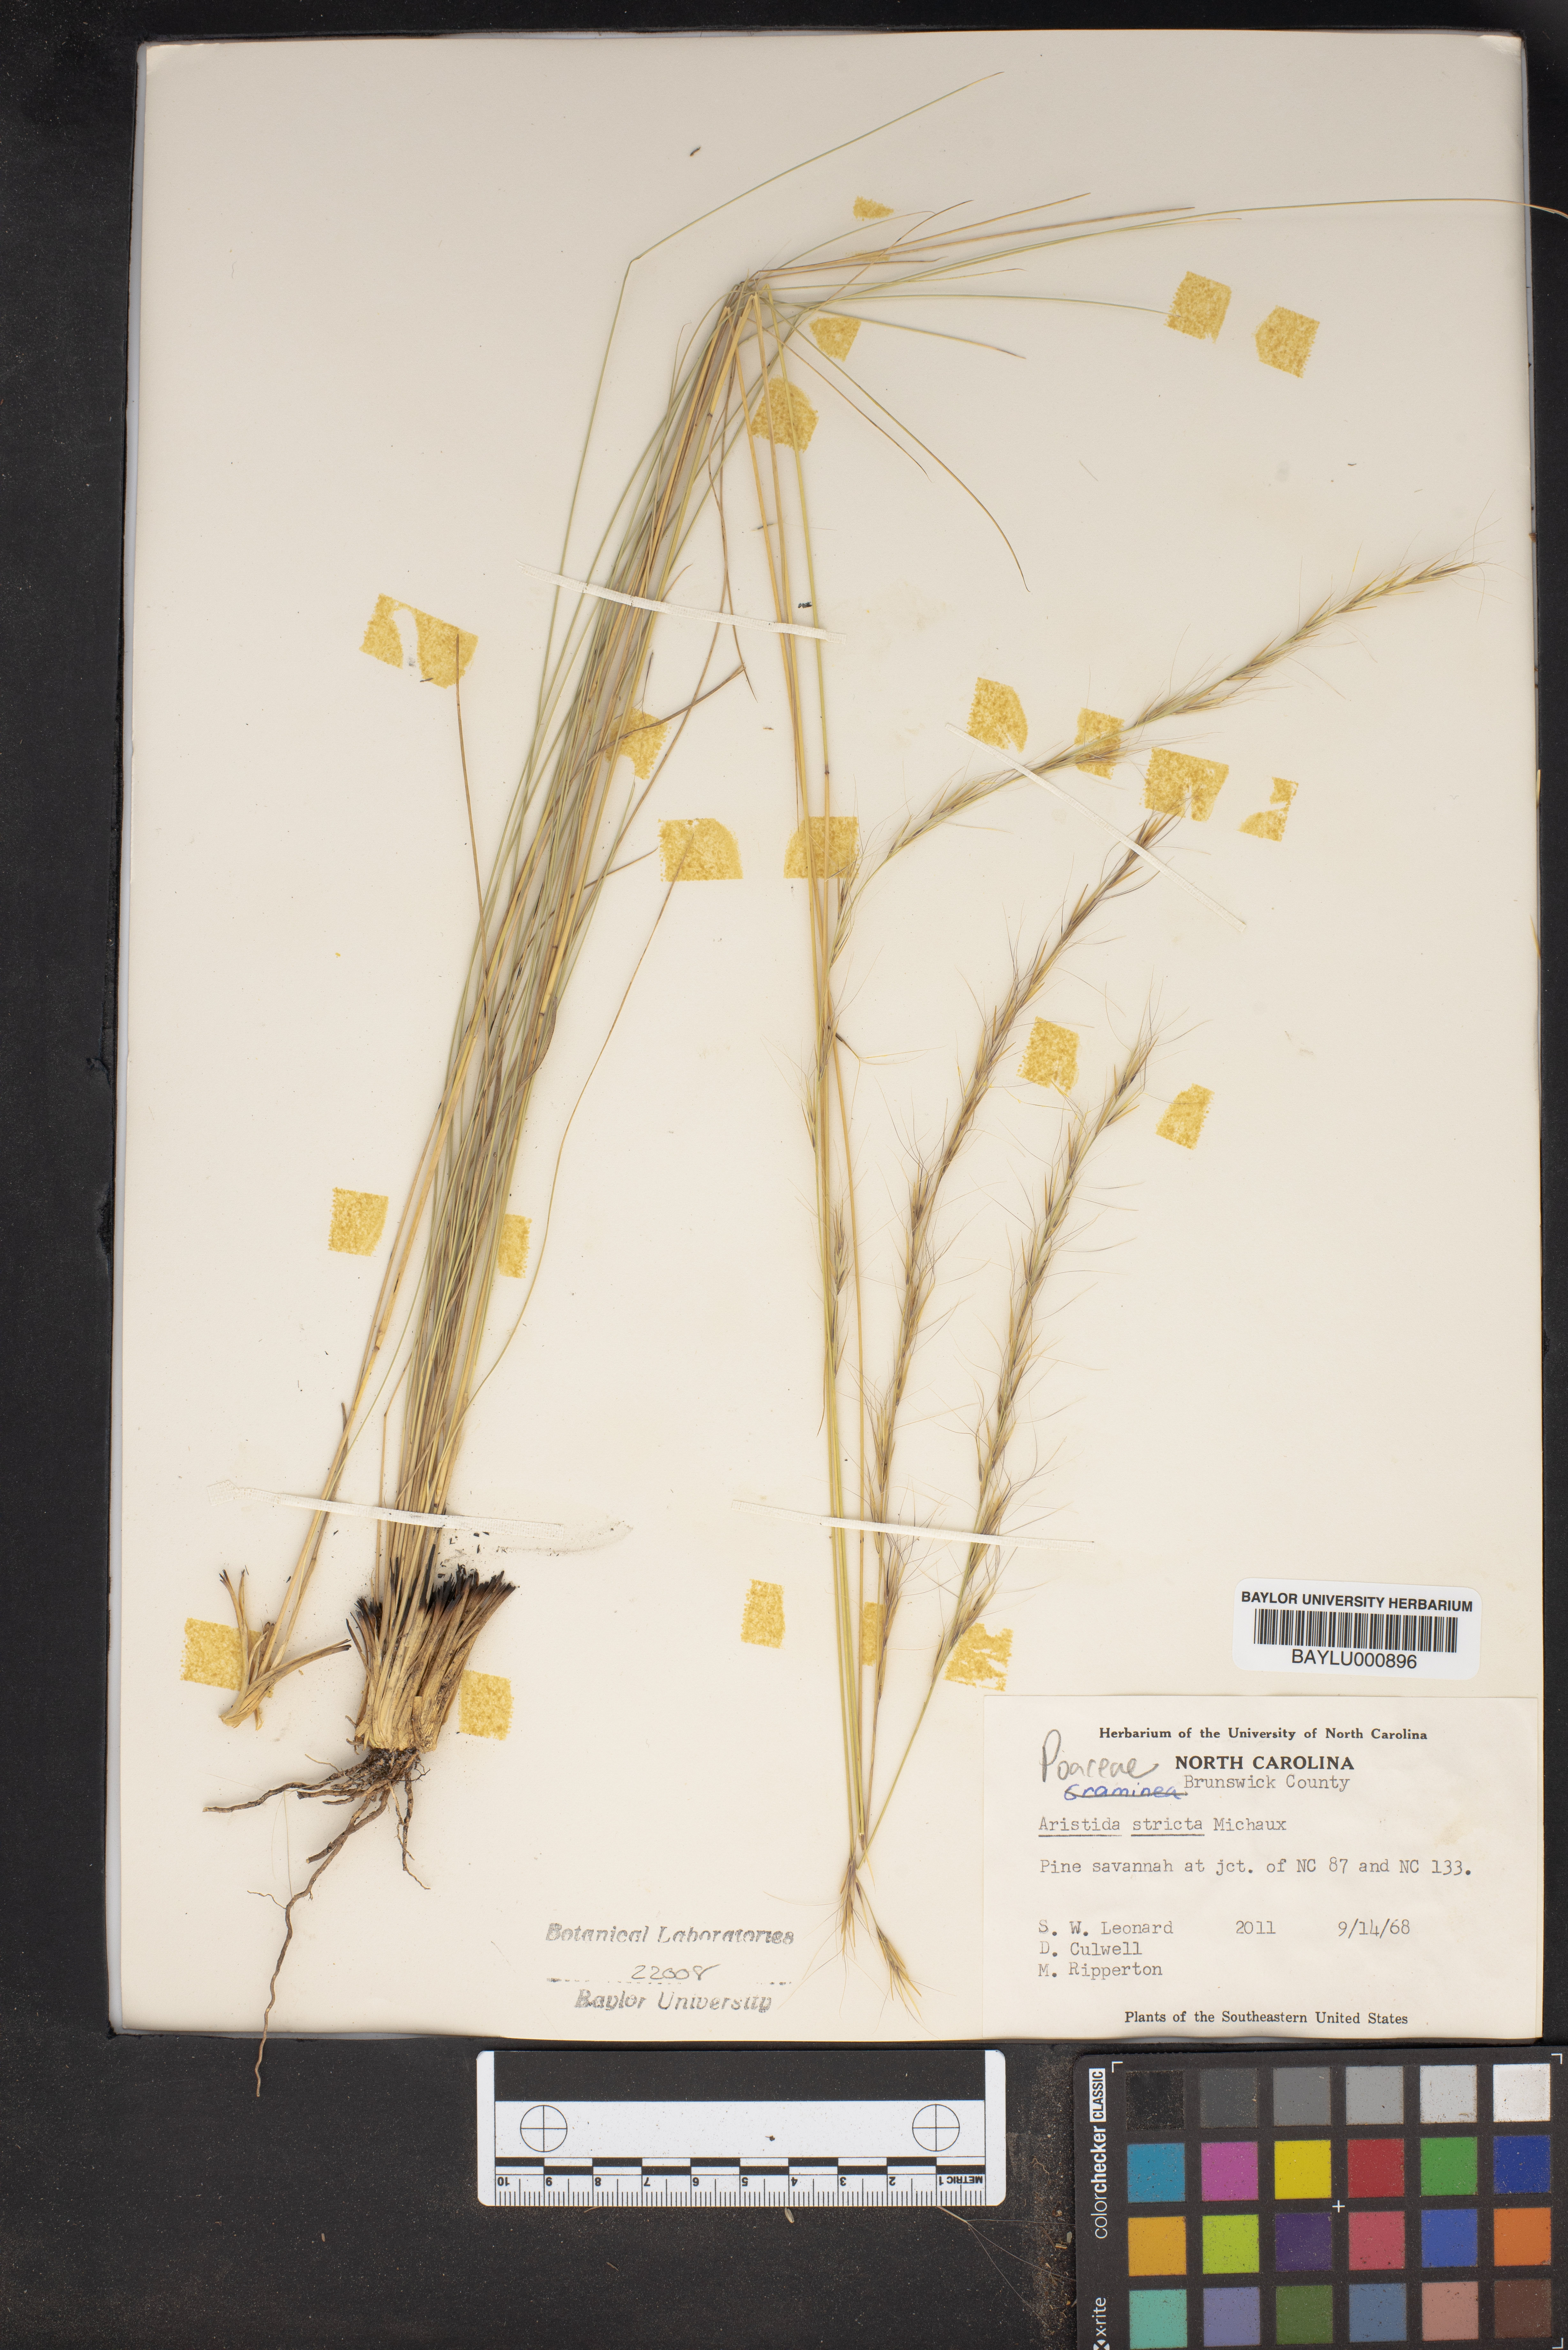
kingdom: Plantae
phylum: Tracheophyta
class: Liliopsida
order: Poales
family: Poaceae
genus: Aristida
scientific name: Aristida stricta
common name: Pineland three-awn
